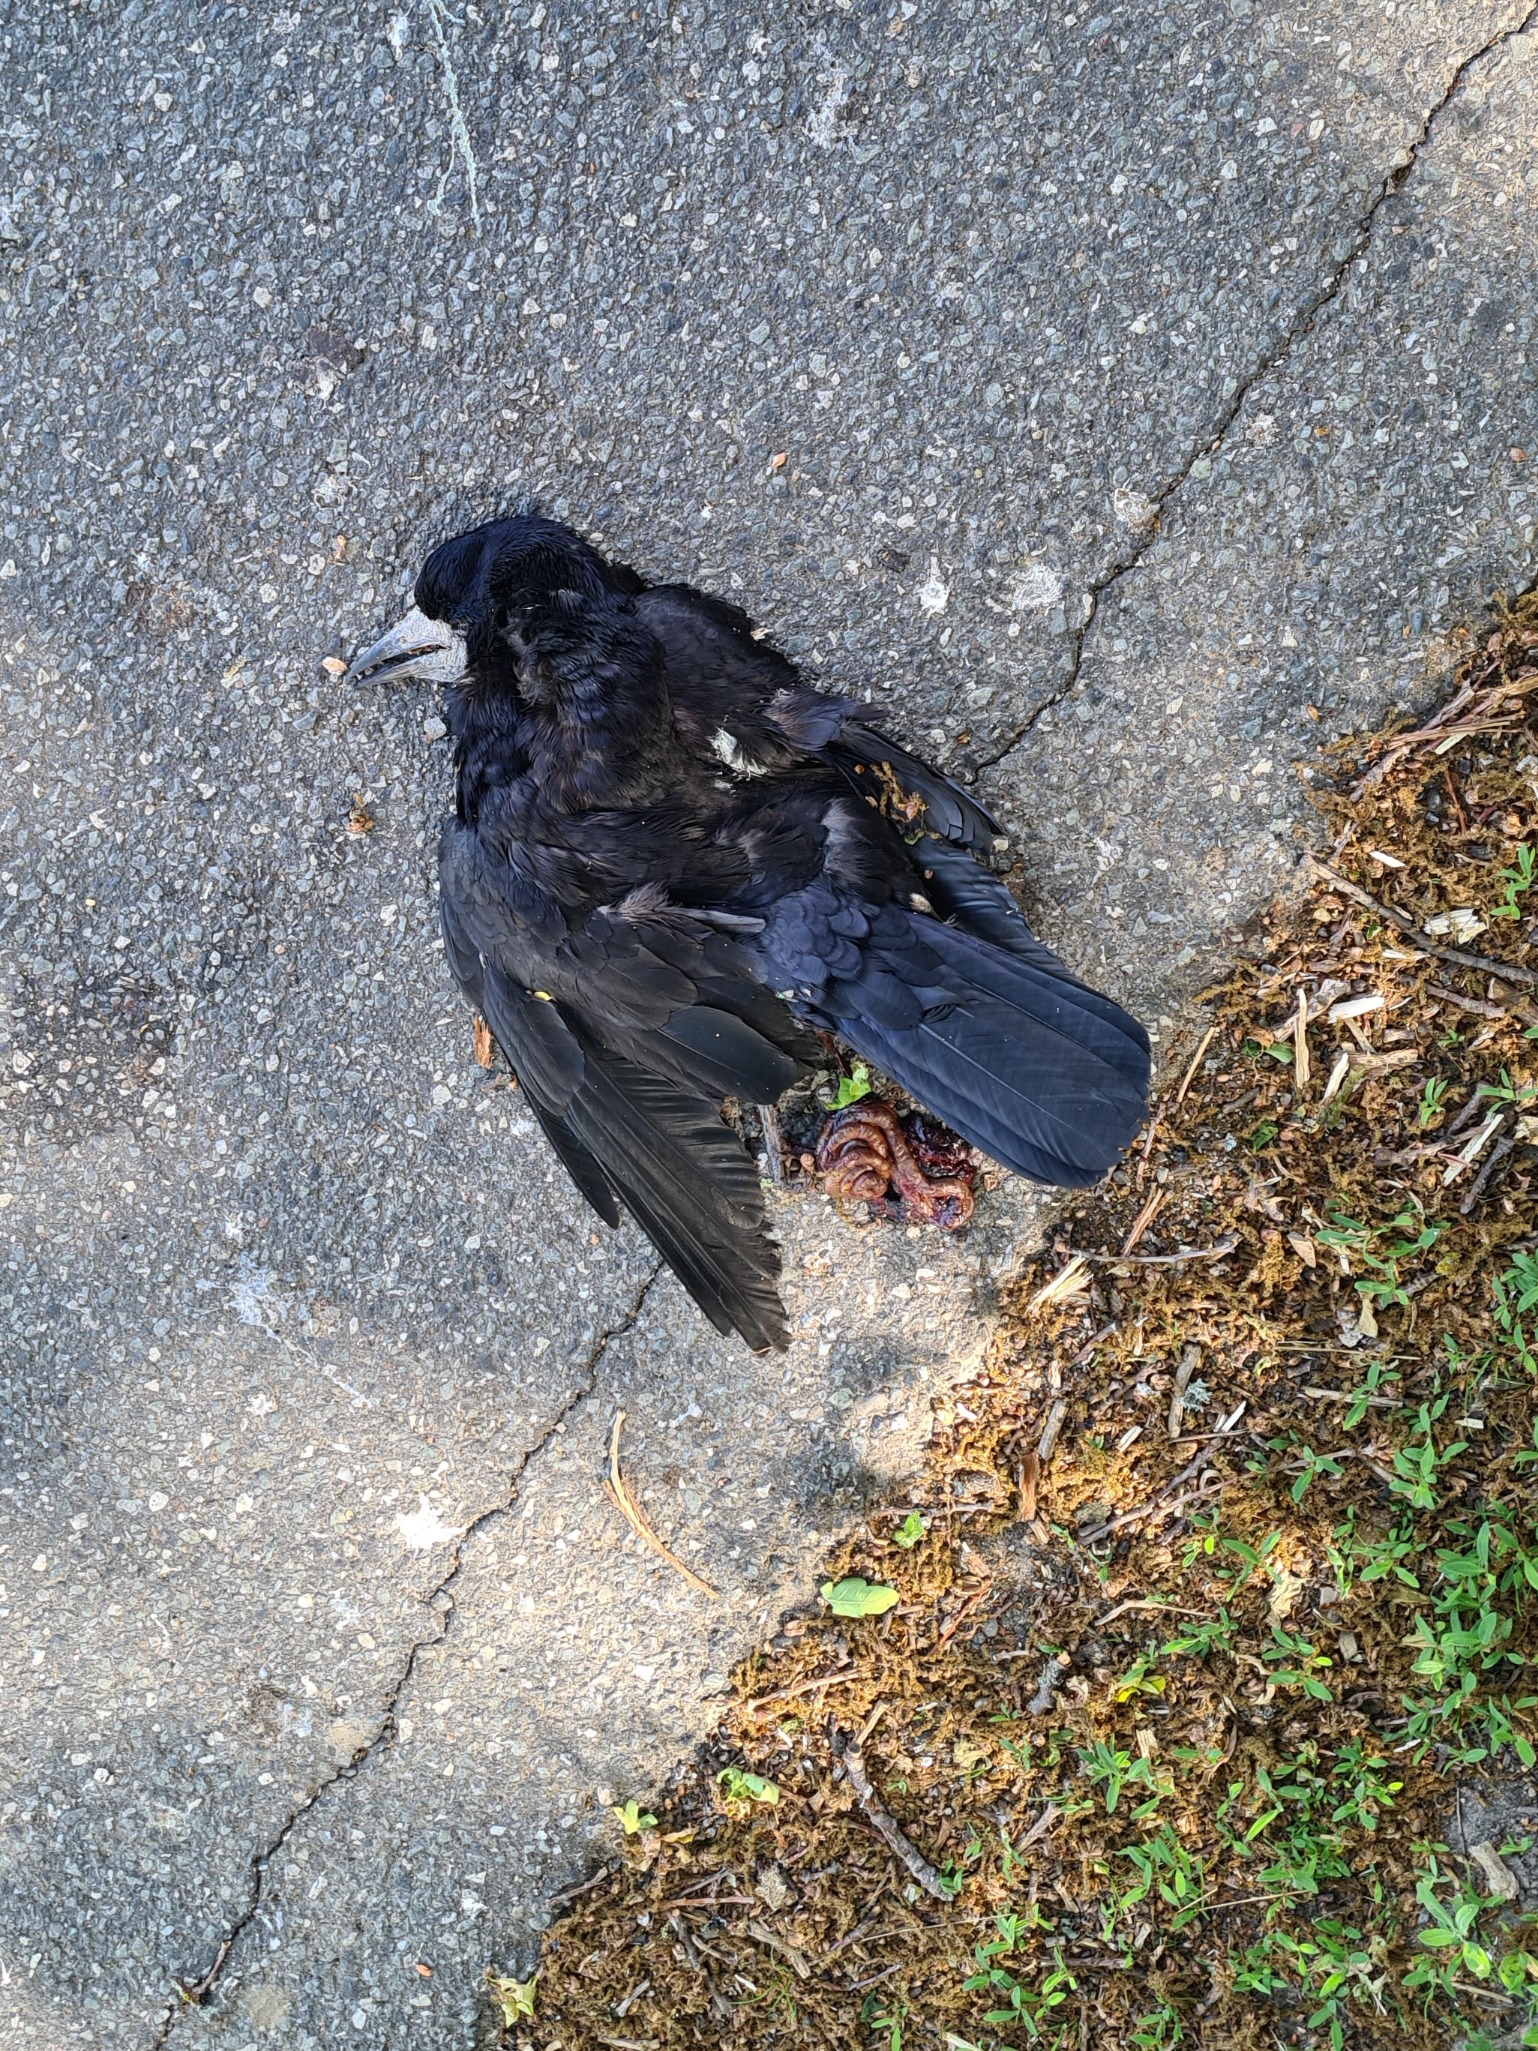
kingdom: Animalia
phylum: Chordata
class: Aves
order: Passeriformes
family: Corvidae
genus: Corvus
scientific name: Corvus frugilegus
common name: Råge
